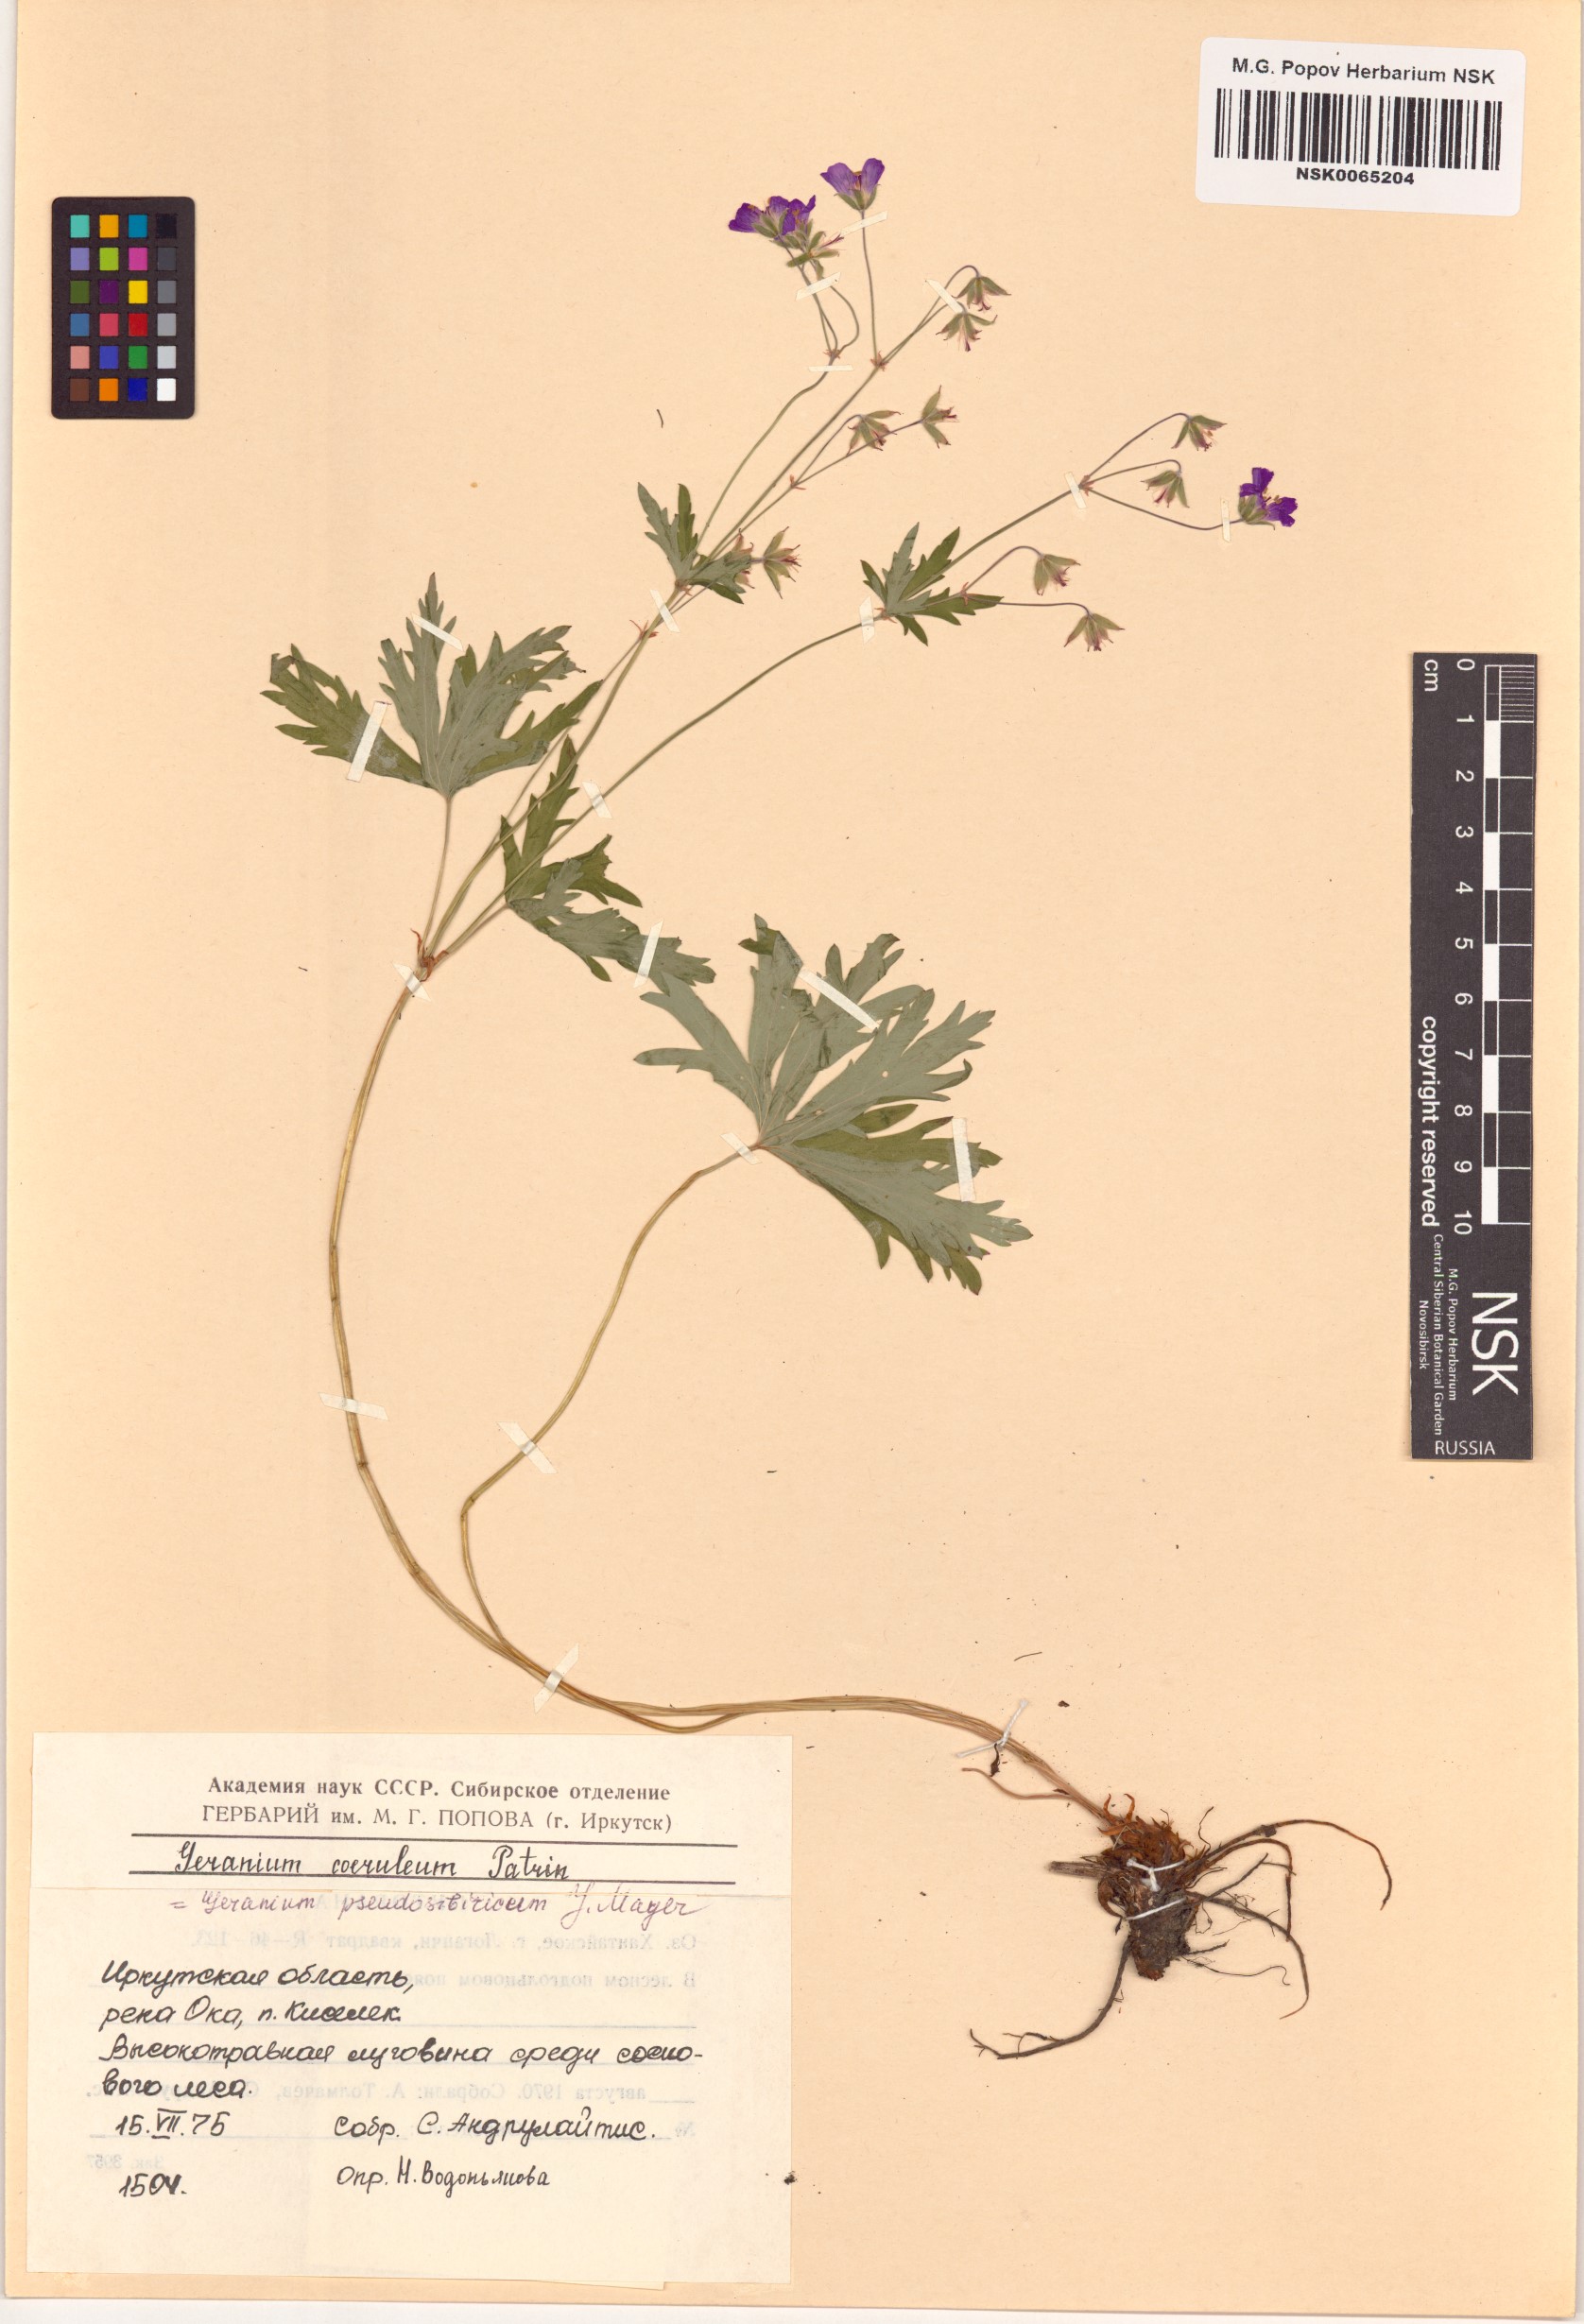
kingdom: Plantae
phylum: Tracheophyta
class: Magnoliopsida
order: Geraniales
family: Geraniaceae
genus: Geranium
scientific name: Geranium pseudosibiricum
